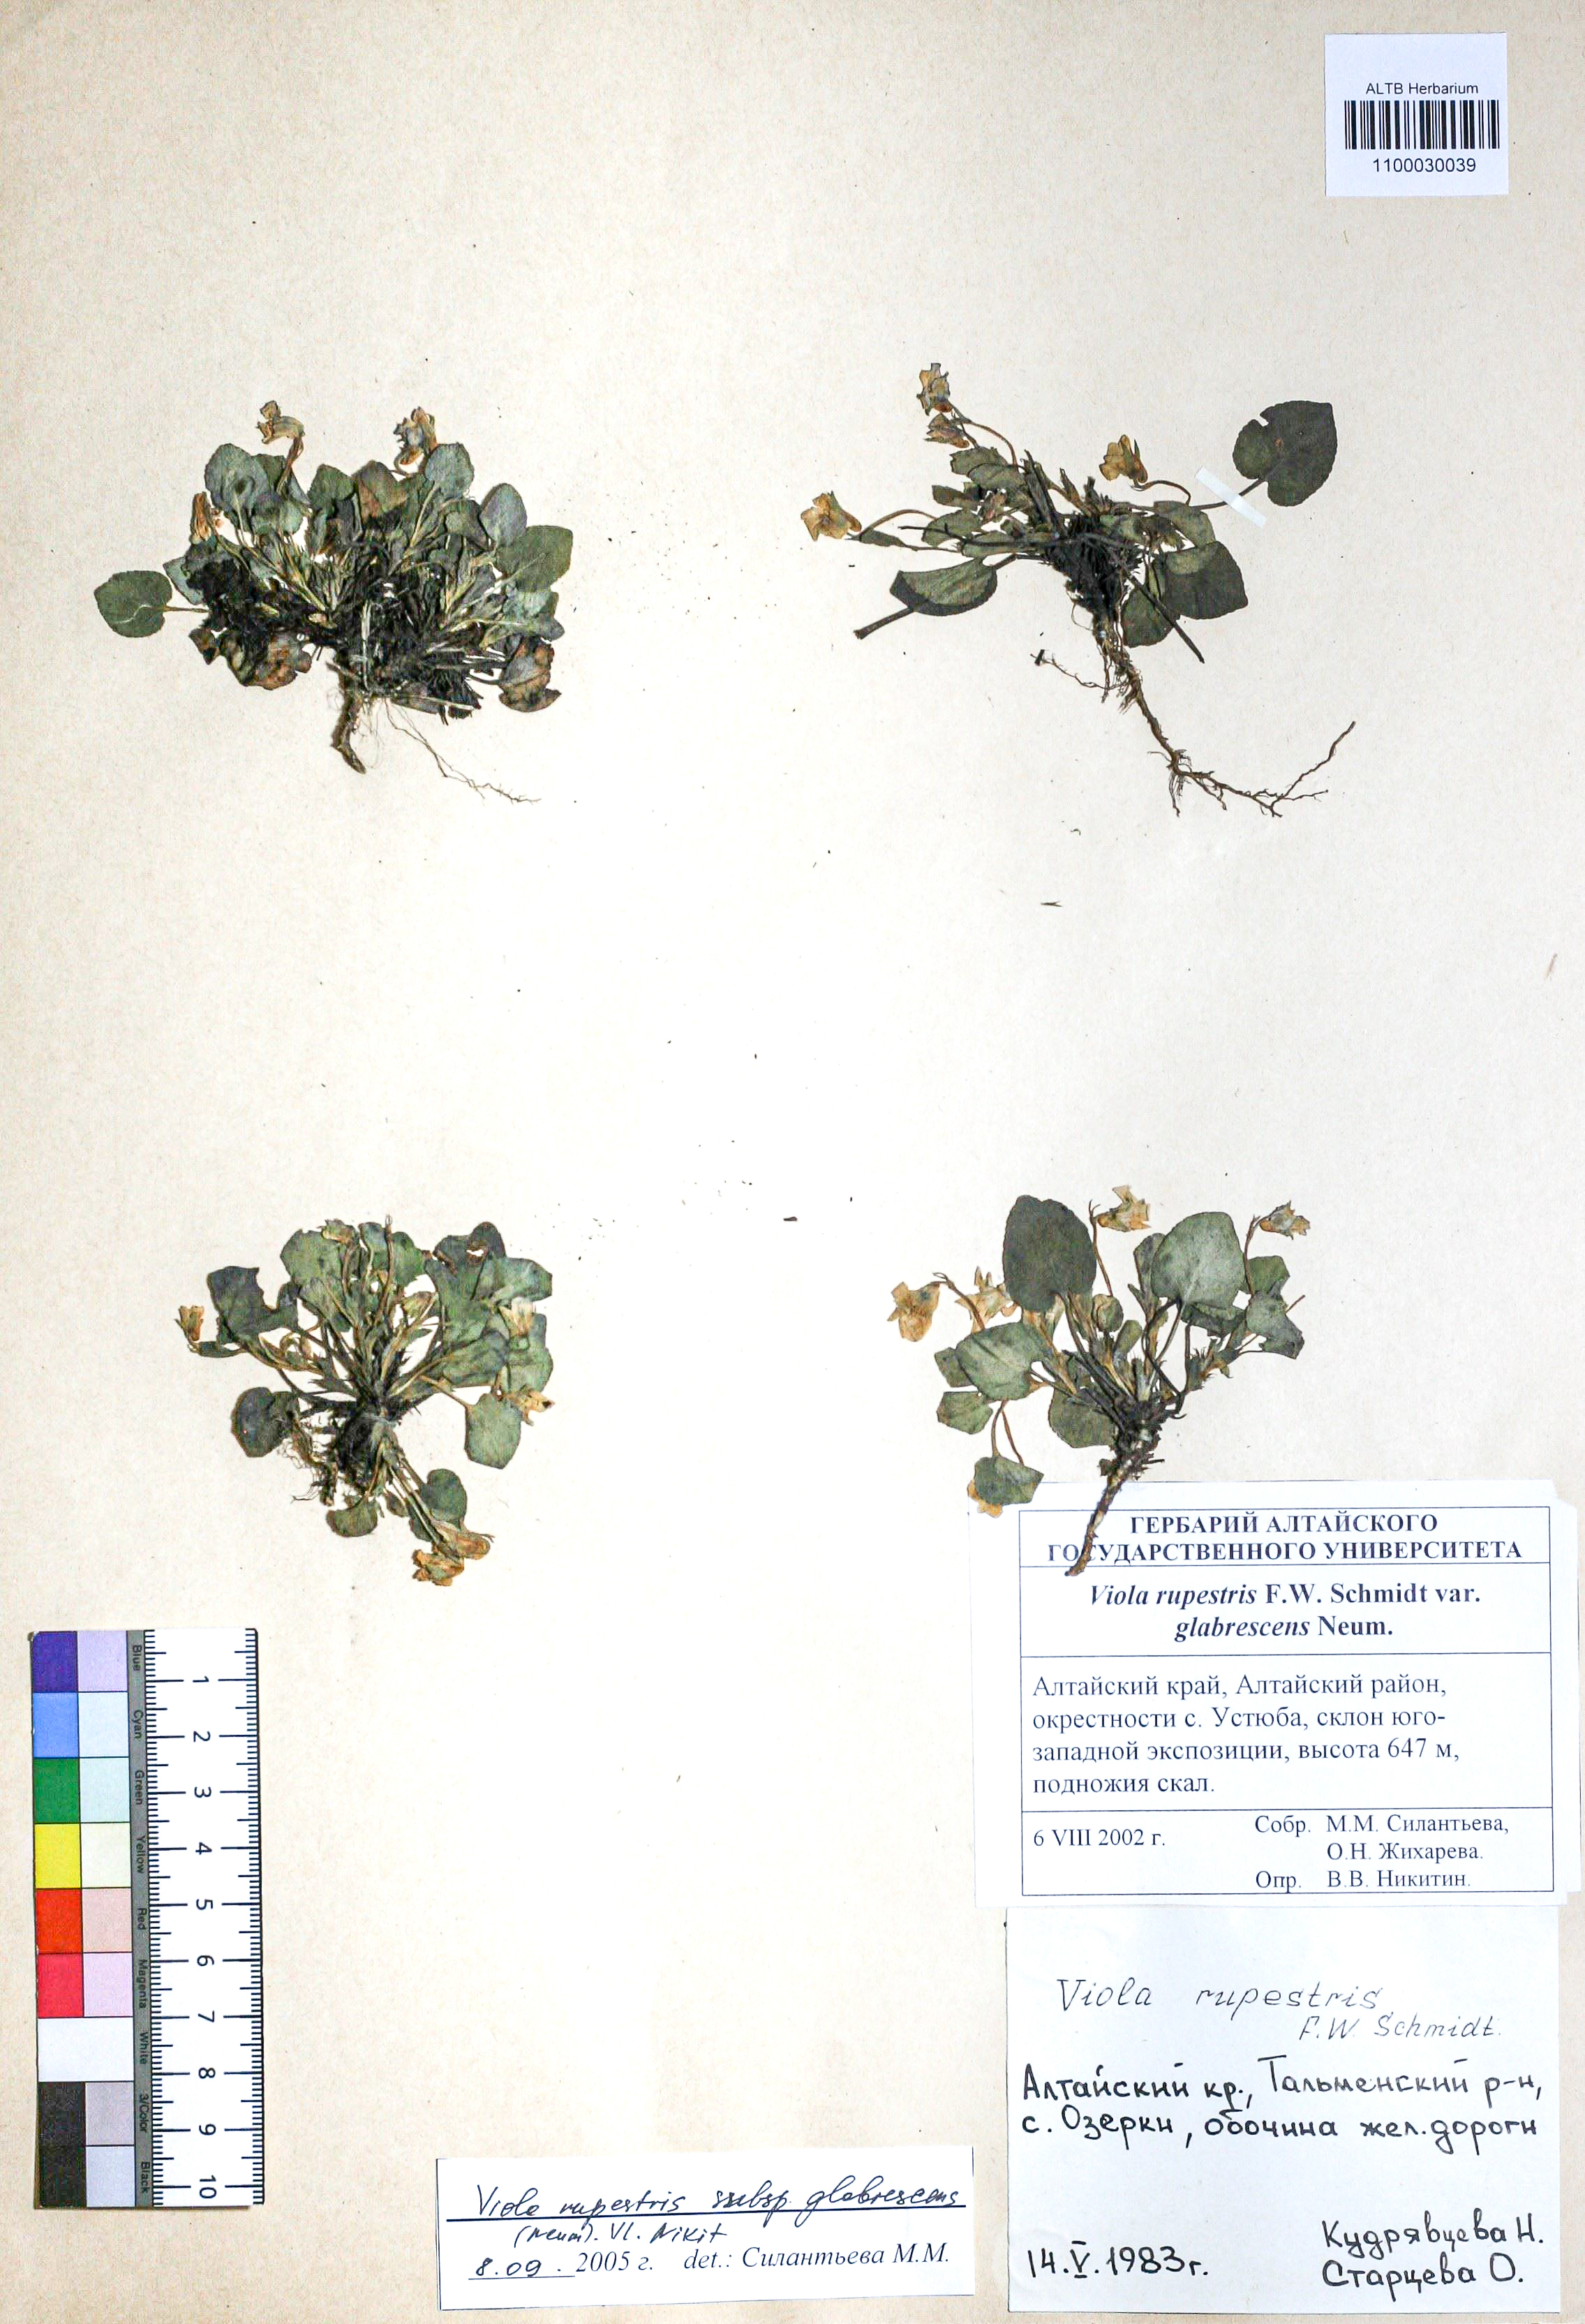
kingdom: Plantae
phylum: Tracheophyta
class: Magnoliopsida
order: Malpighiales
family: Violaceae
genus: Viola
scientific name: Viola rupestris
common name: Teesdale violet
